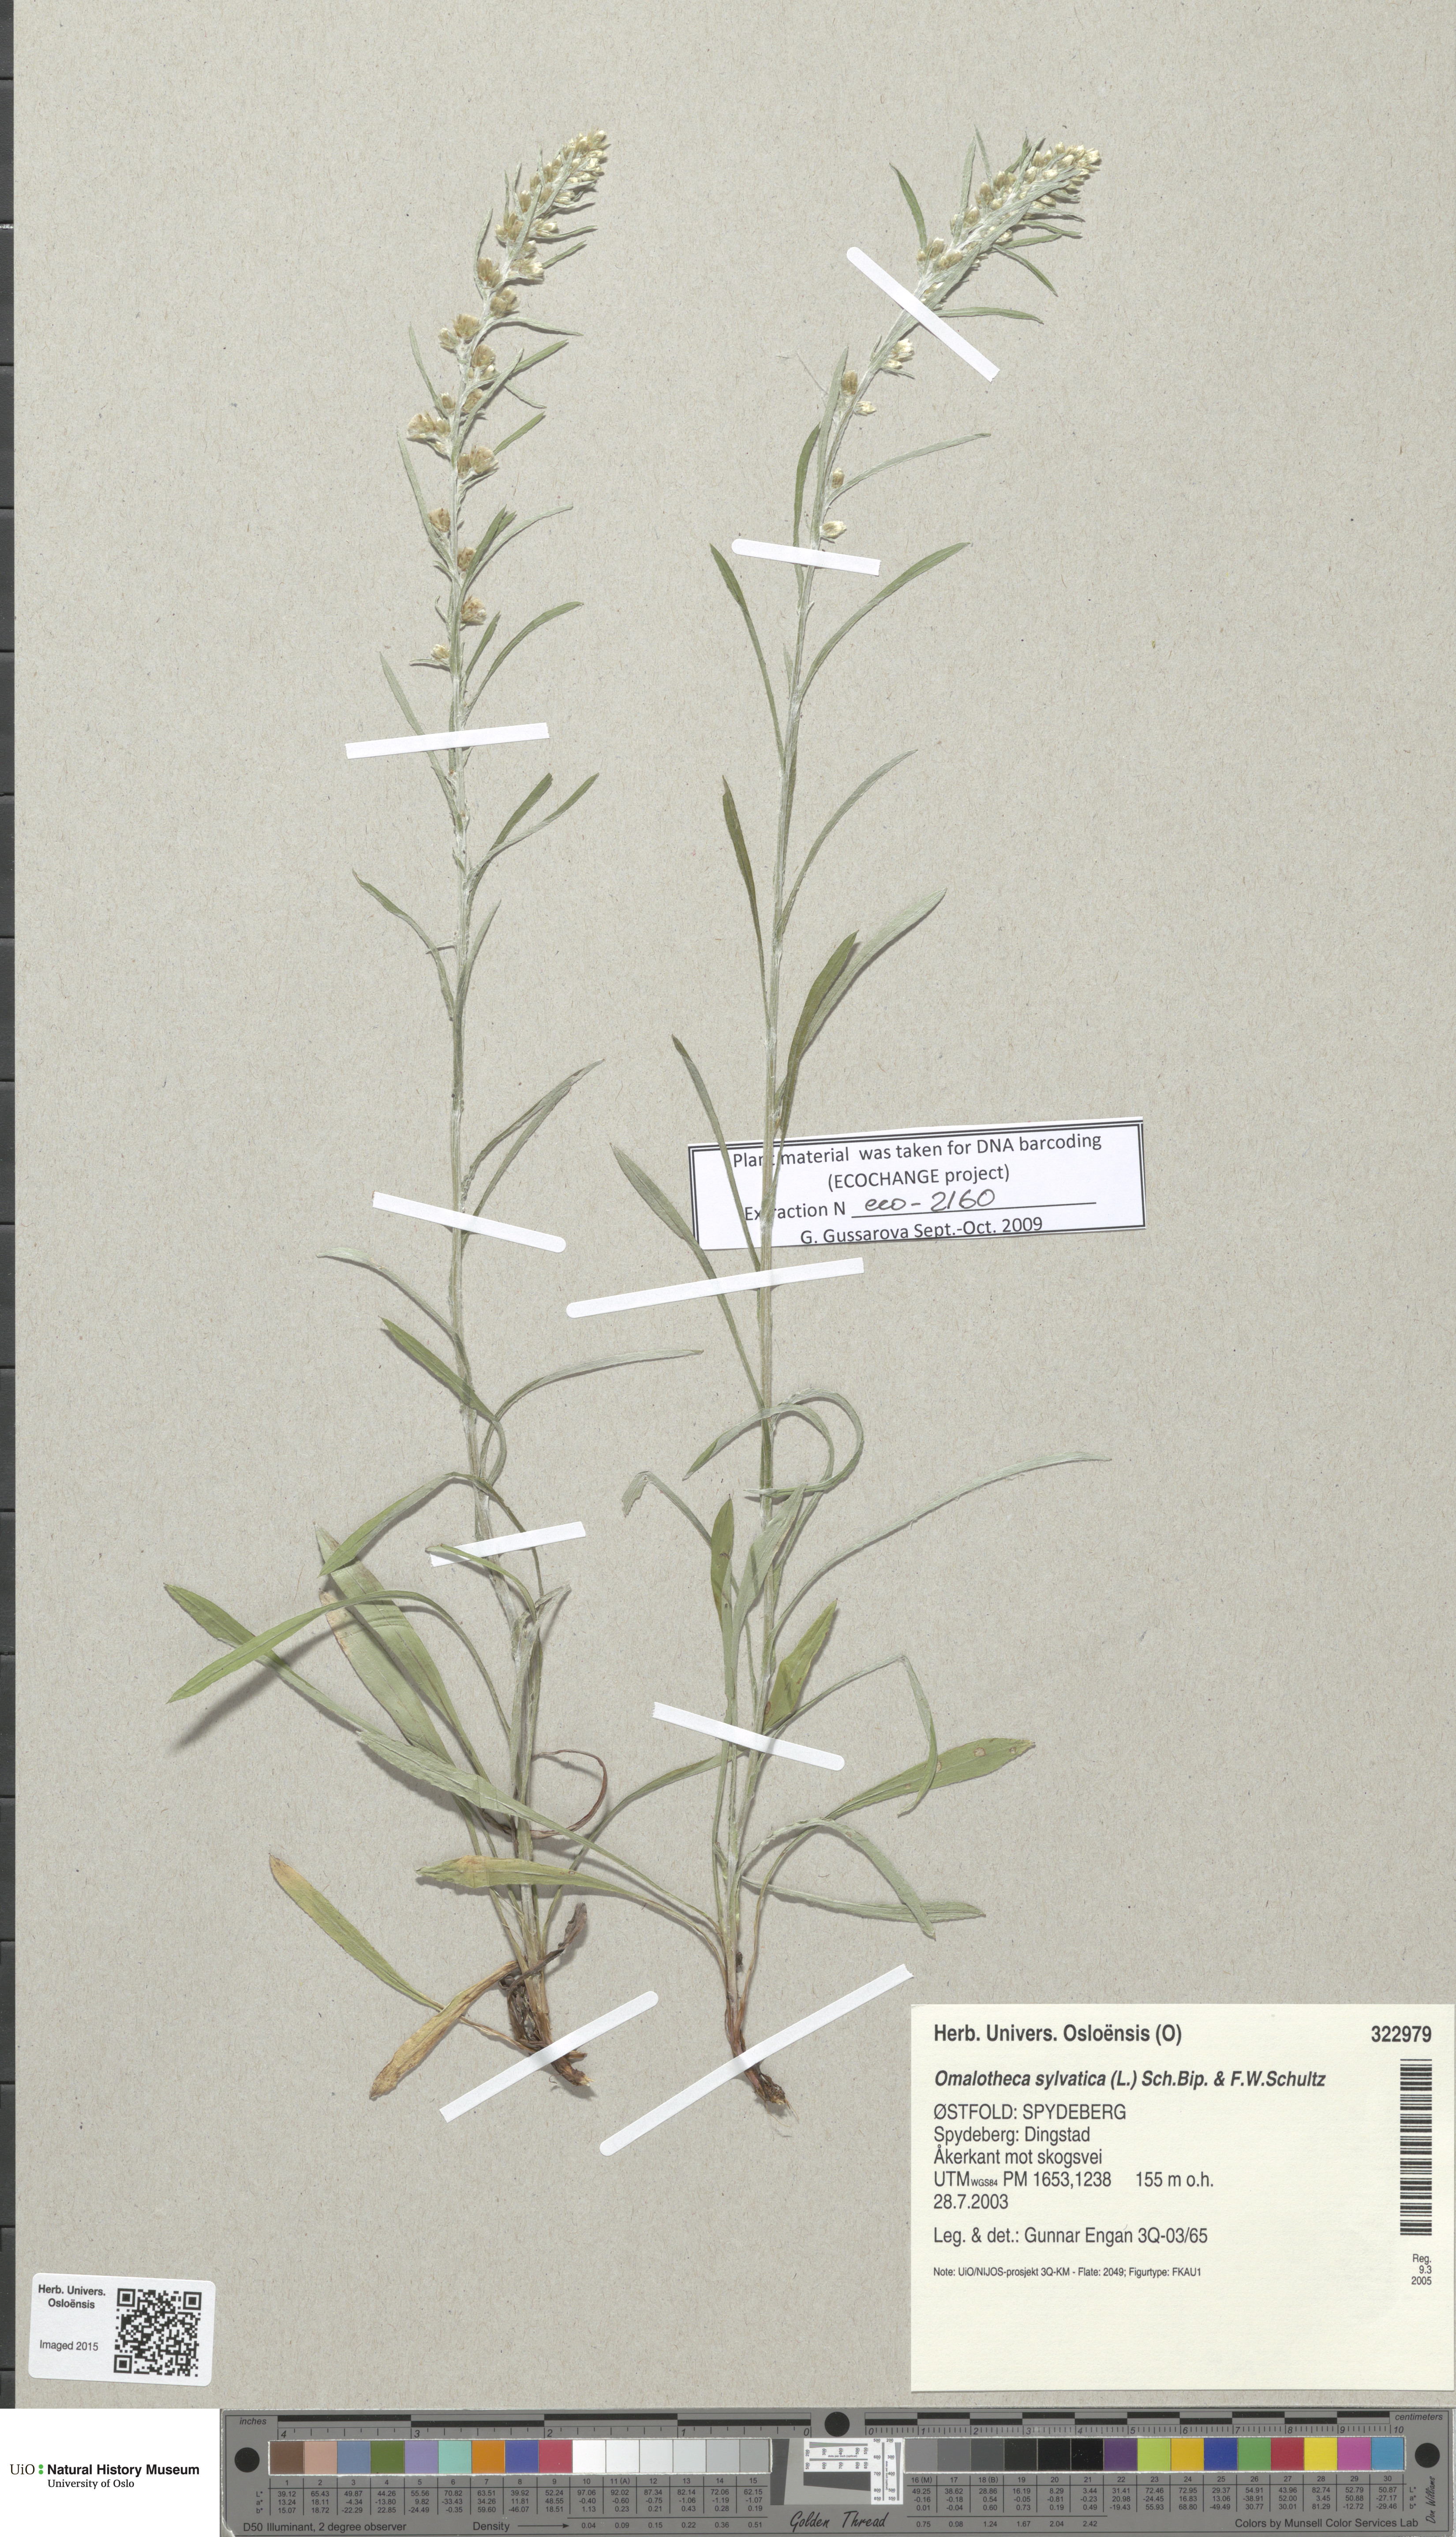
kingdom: Plantae
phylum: Tracheophyta
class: Magnoliopsida
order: Asterales
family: Asteraceae
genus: Omalotheca
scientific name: Omalotheca sylvatica
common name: Heath cudweed
